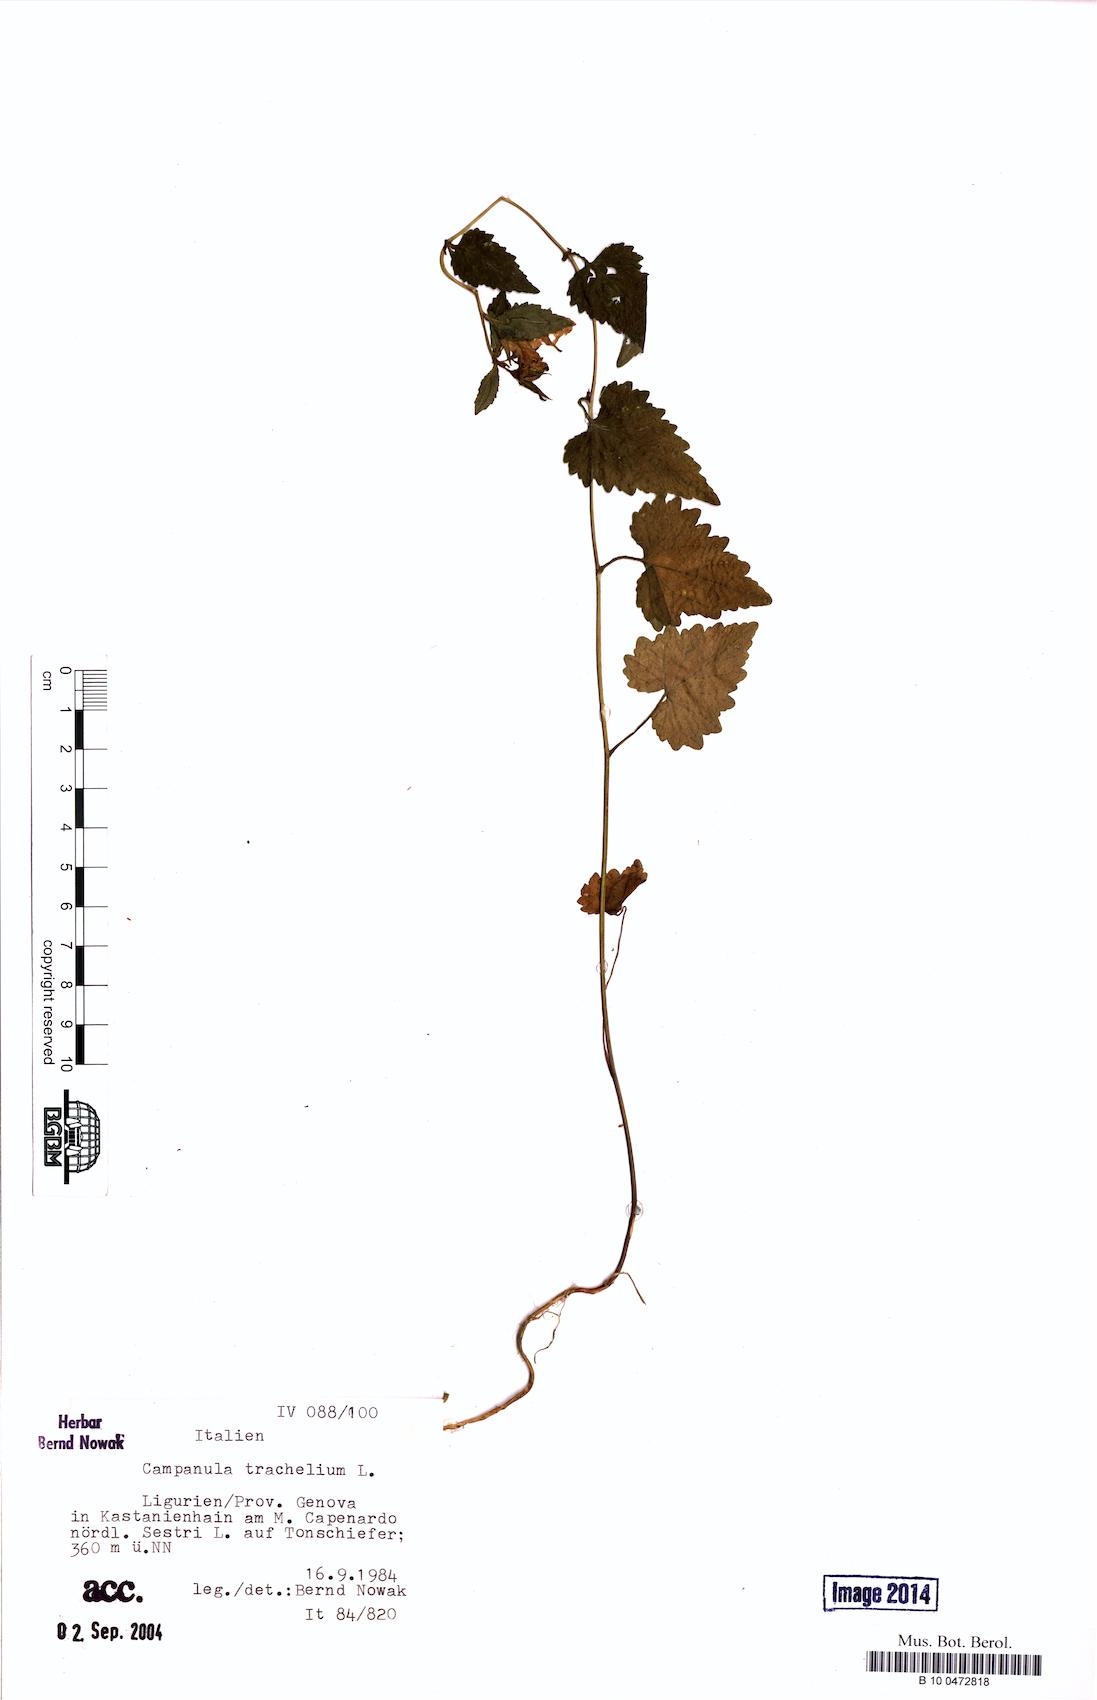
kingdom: Plantae
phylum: Tracheophyta
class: Magnoliopsida
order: Asterales
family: Campanulaceae
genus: Campanula
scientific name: Campanula trachelium
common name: Nettle-leaved bellflower
